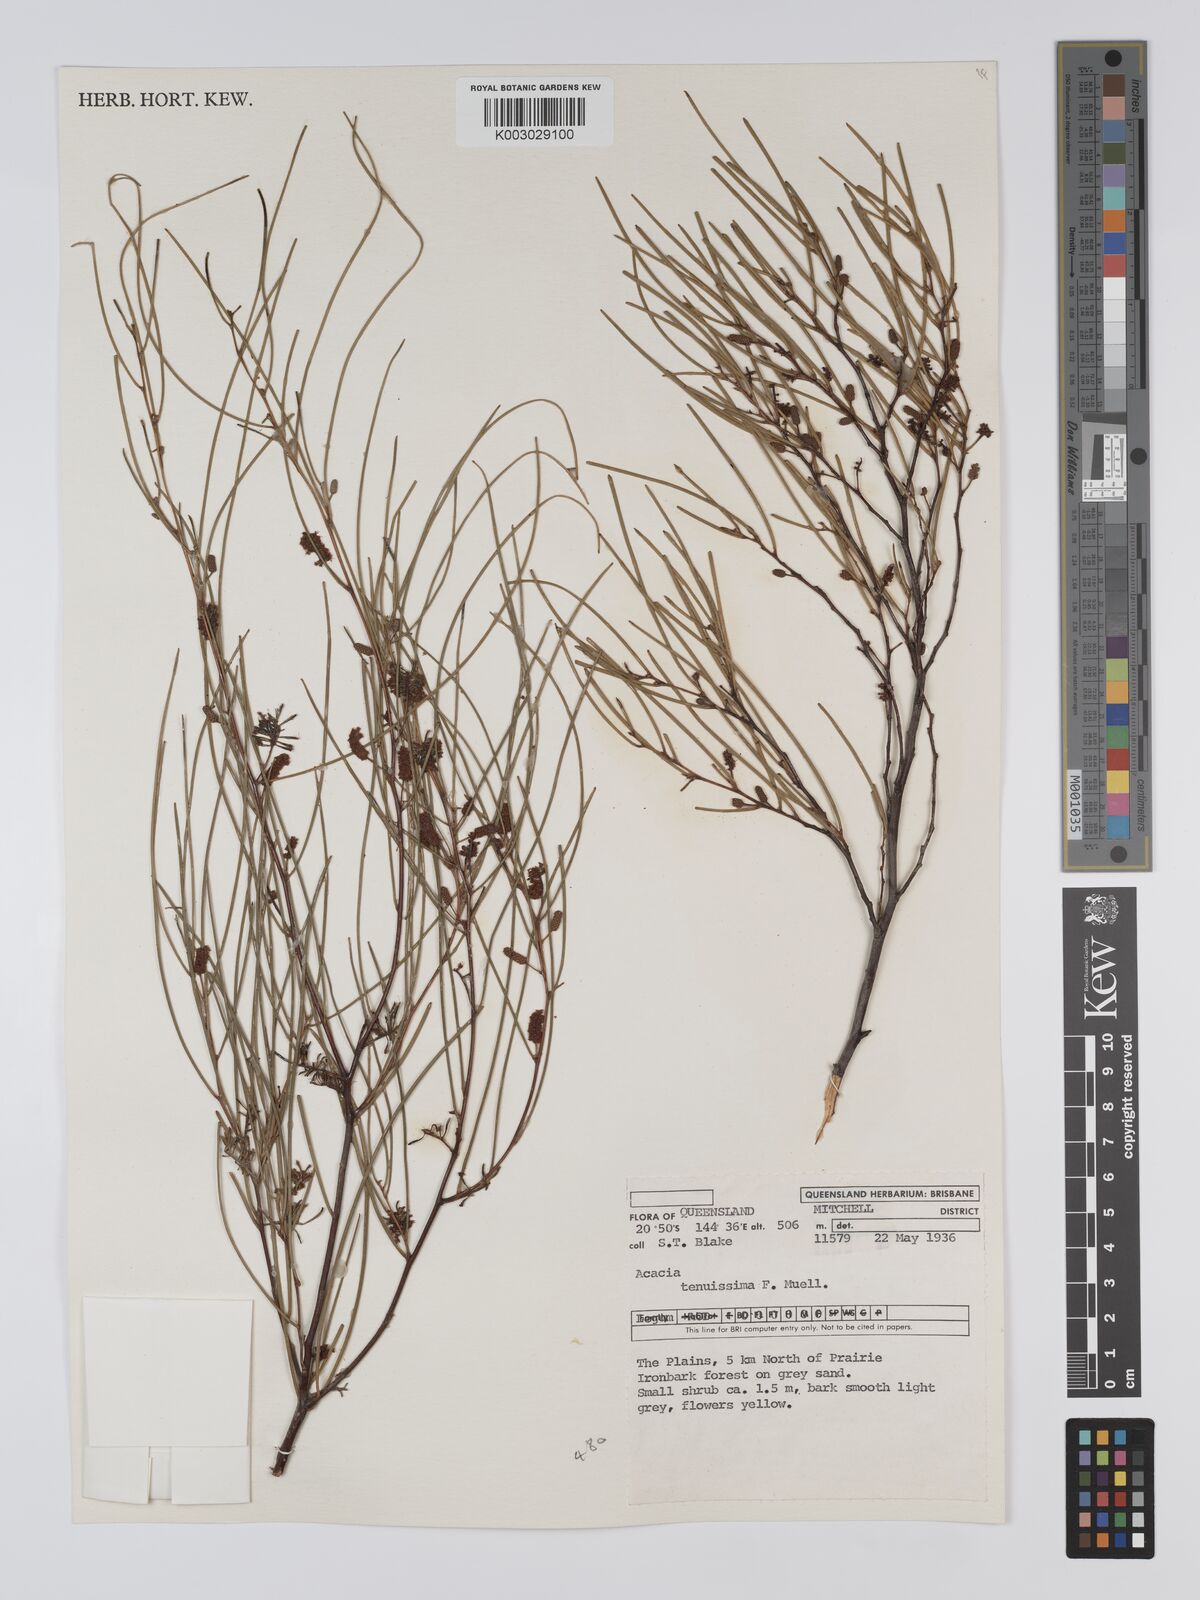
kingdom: Plantae
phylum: Tracheophyta
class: Magnoliopsida
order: Fabales
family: Fabaceae
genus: Acacia
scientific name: Acacia tenuissima
